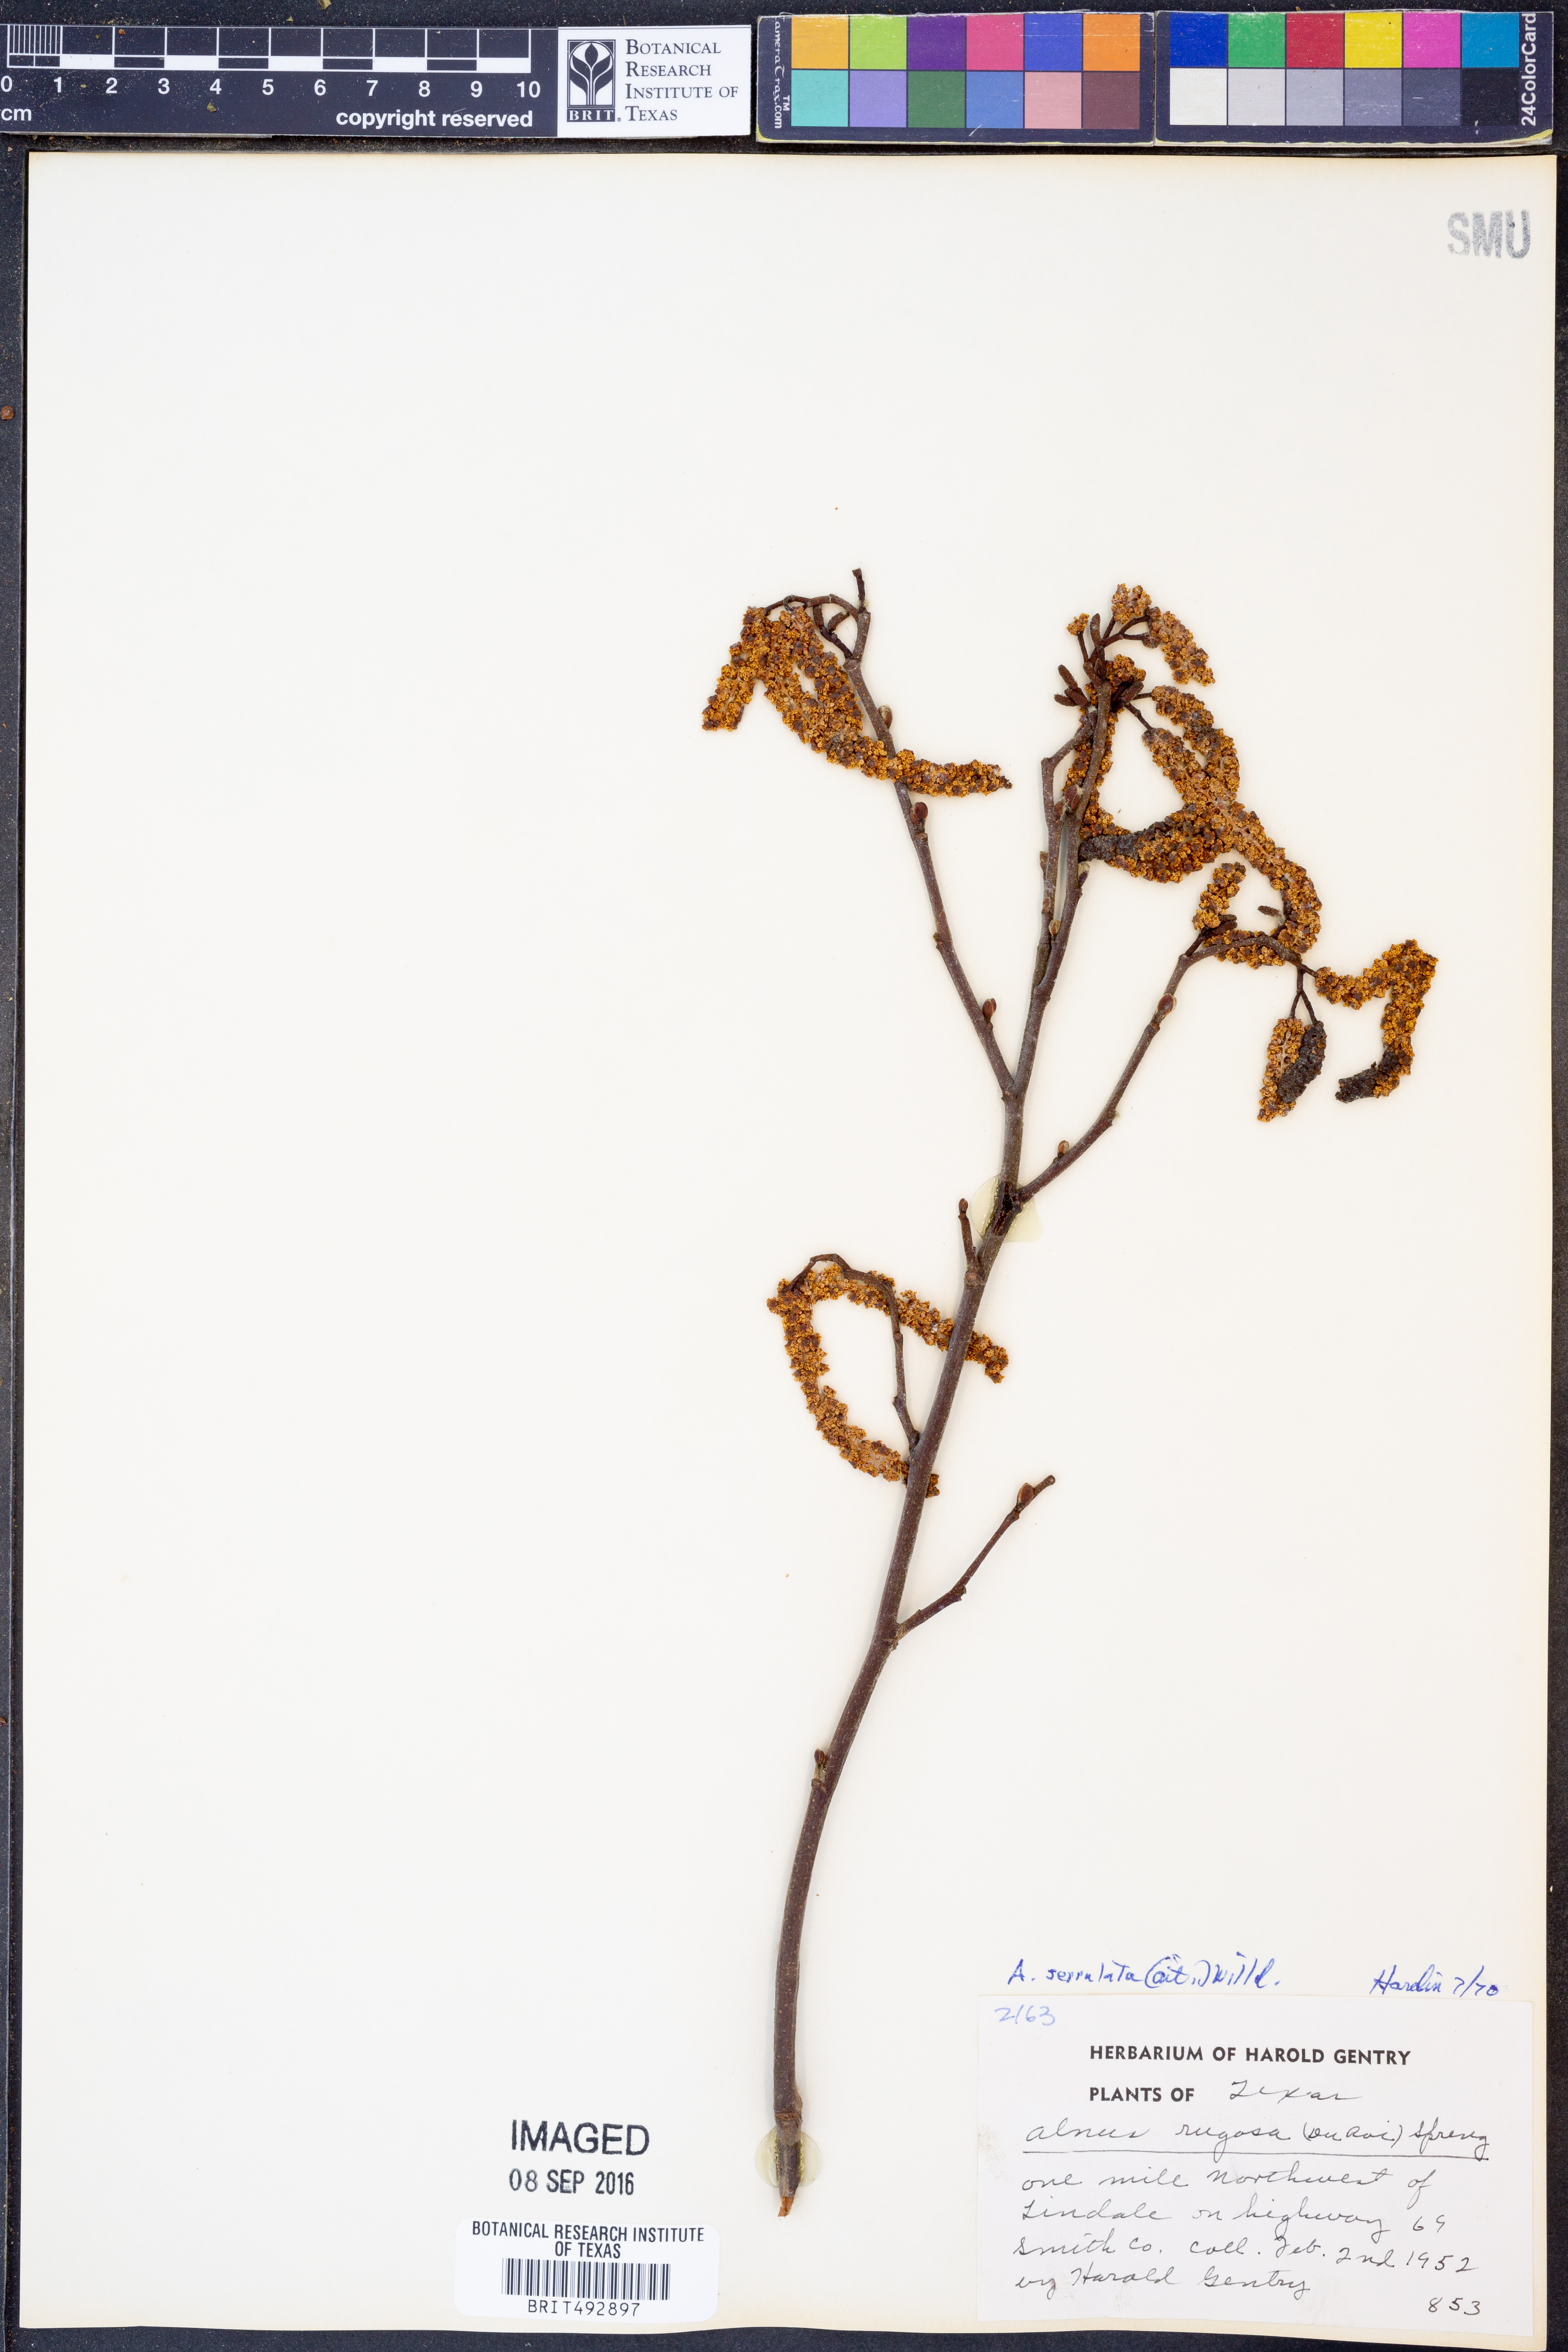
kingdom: Plantae
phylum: Tracheophyta
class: Magnoliopsida
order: Fagales
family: Betulaceae
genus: Alnus
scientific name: Alnus serrulata
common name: Hazel alder
